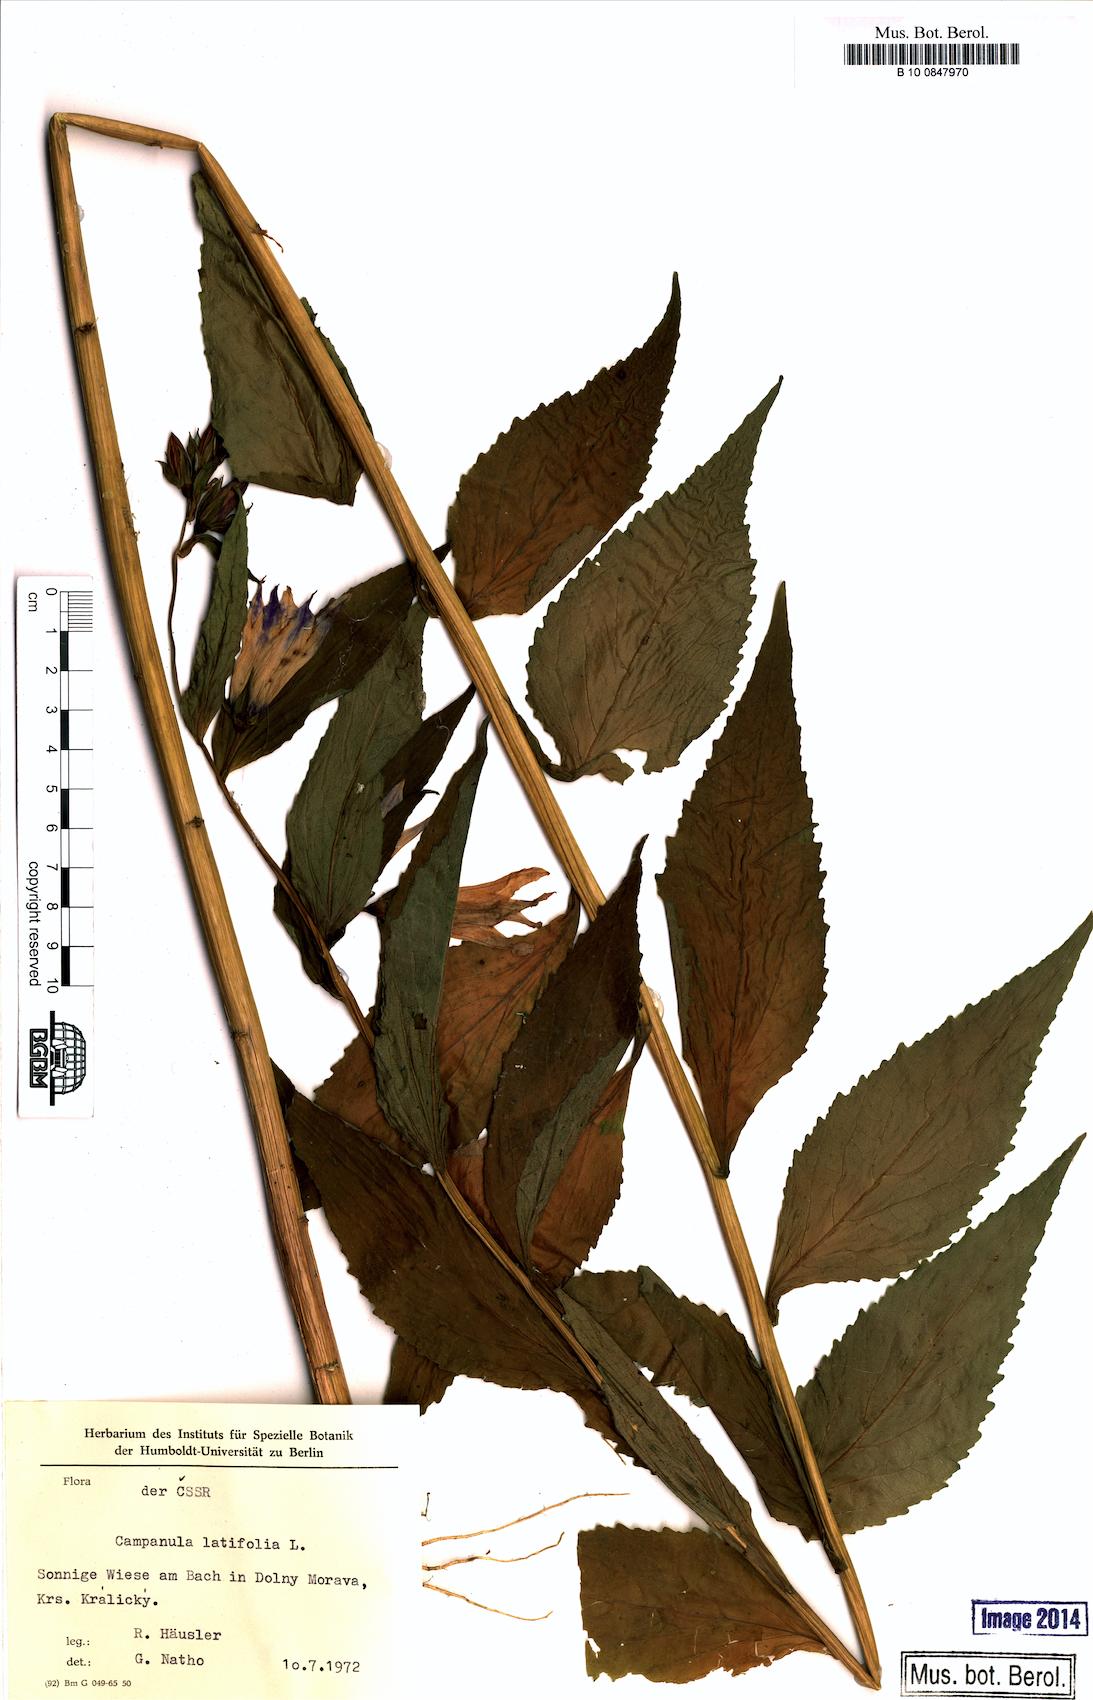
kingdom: Plantae
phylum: Tracheophyta
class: Magnoliopsida
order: Asterales
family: Campanulaceae
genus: Campanula
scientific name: Campanula latifolia
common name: Giant bellflower
